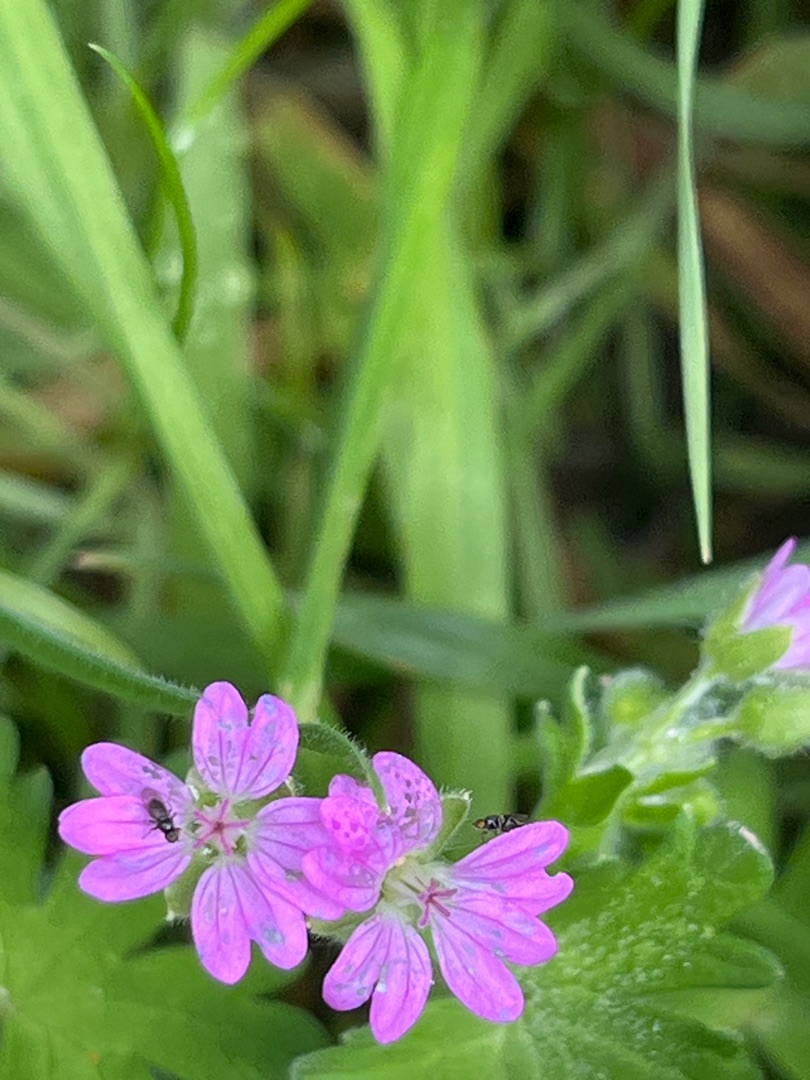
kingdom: Plantae
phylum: Tracheophyta
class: Magnoliopsida
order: Geraniales
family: Geraniaceae
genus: Geranium
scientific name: Geranium molle
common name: Blød storkenæb
